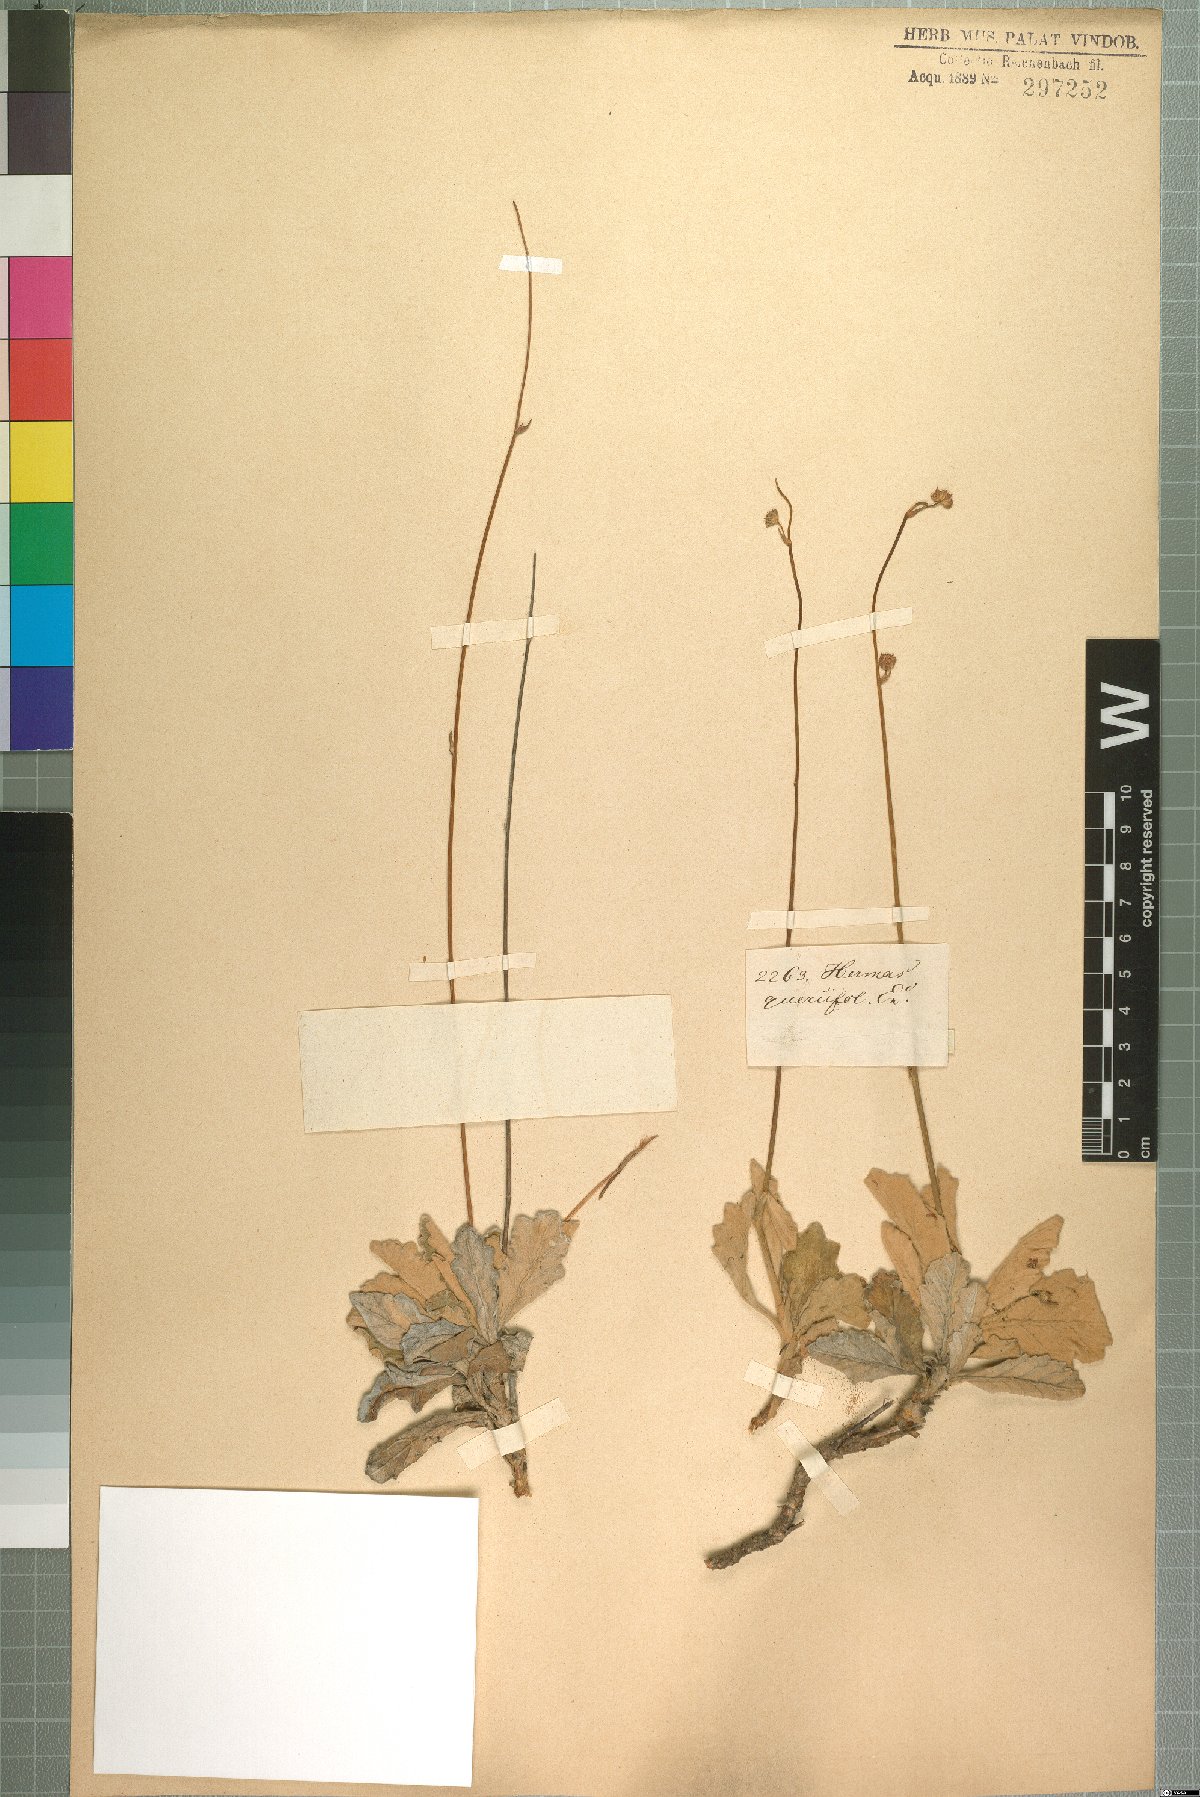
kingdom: Plantae
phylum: Tracheophyta
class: Magnoliopsida
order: Apiales
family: Apiaceae
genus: Hermas
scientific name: Hermas quinquedentata
